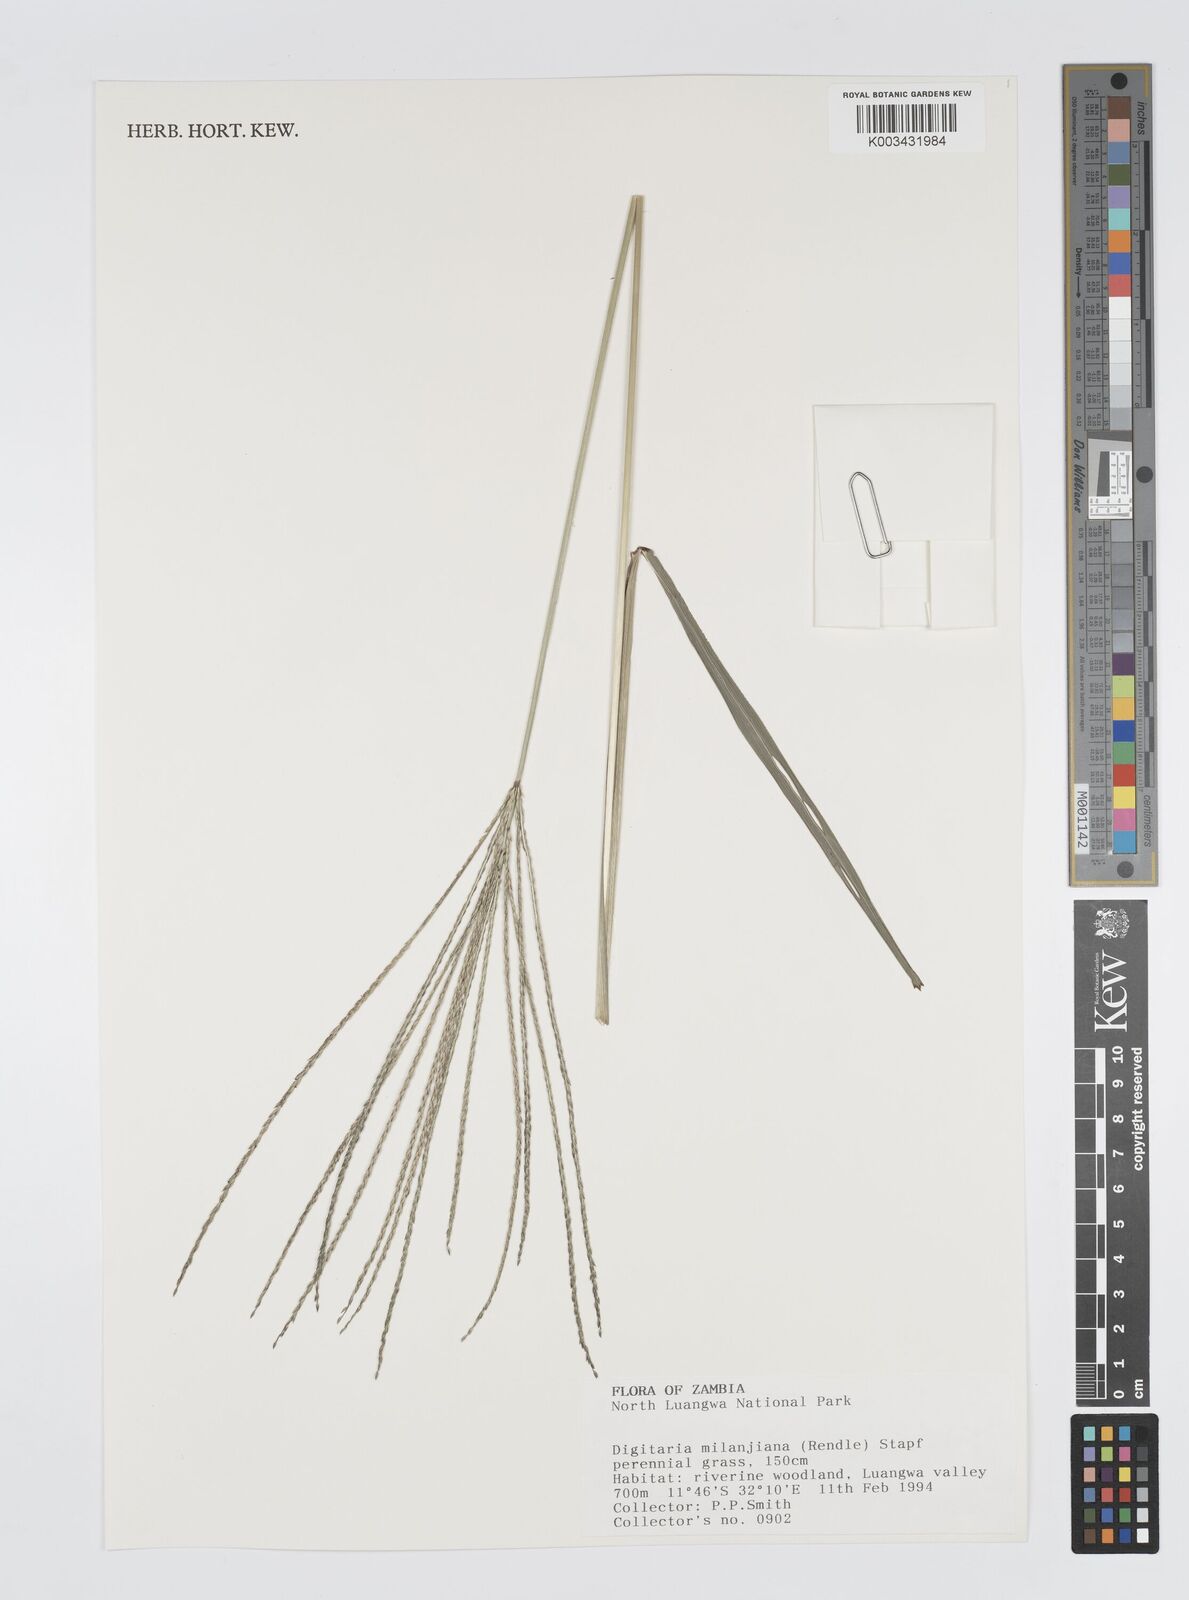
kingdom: Plantae
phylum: Tracheophyta
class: Liliopsida
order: Poales
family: Poaceae
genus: Digitaria
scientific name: Digitaria milanjiana
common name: Madagascar crabgrass
